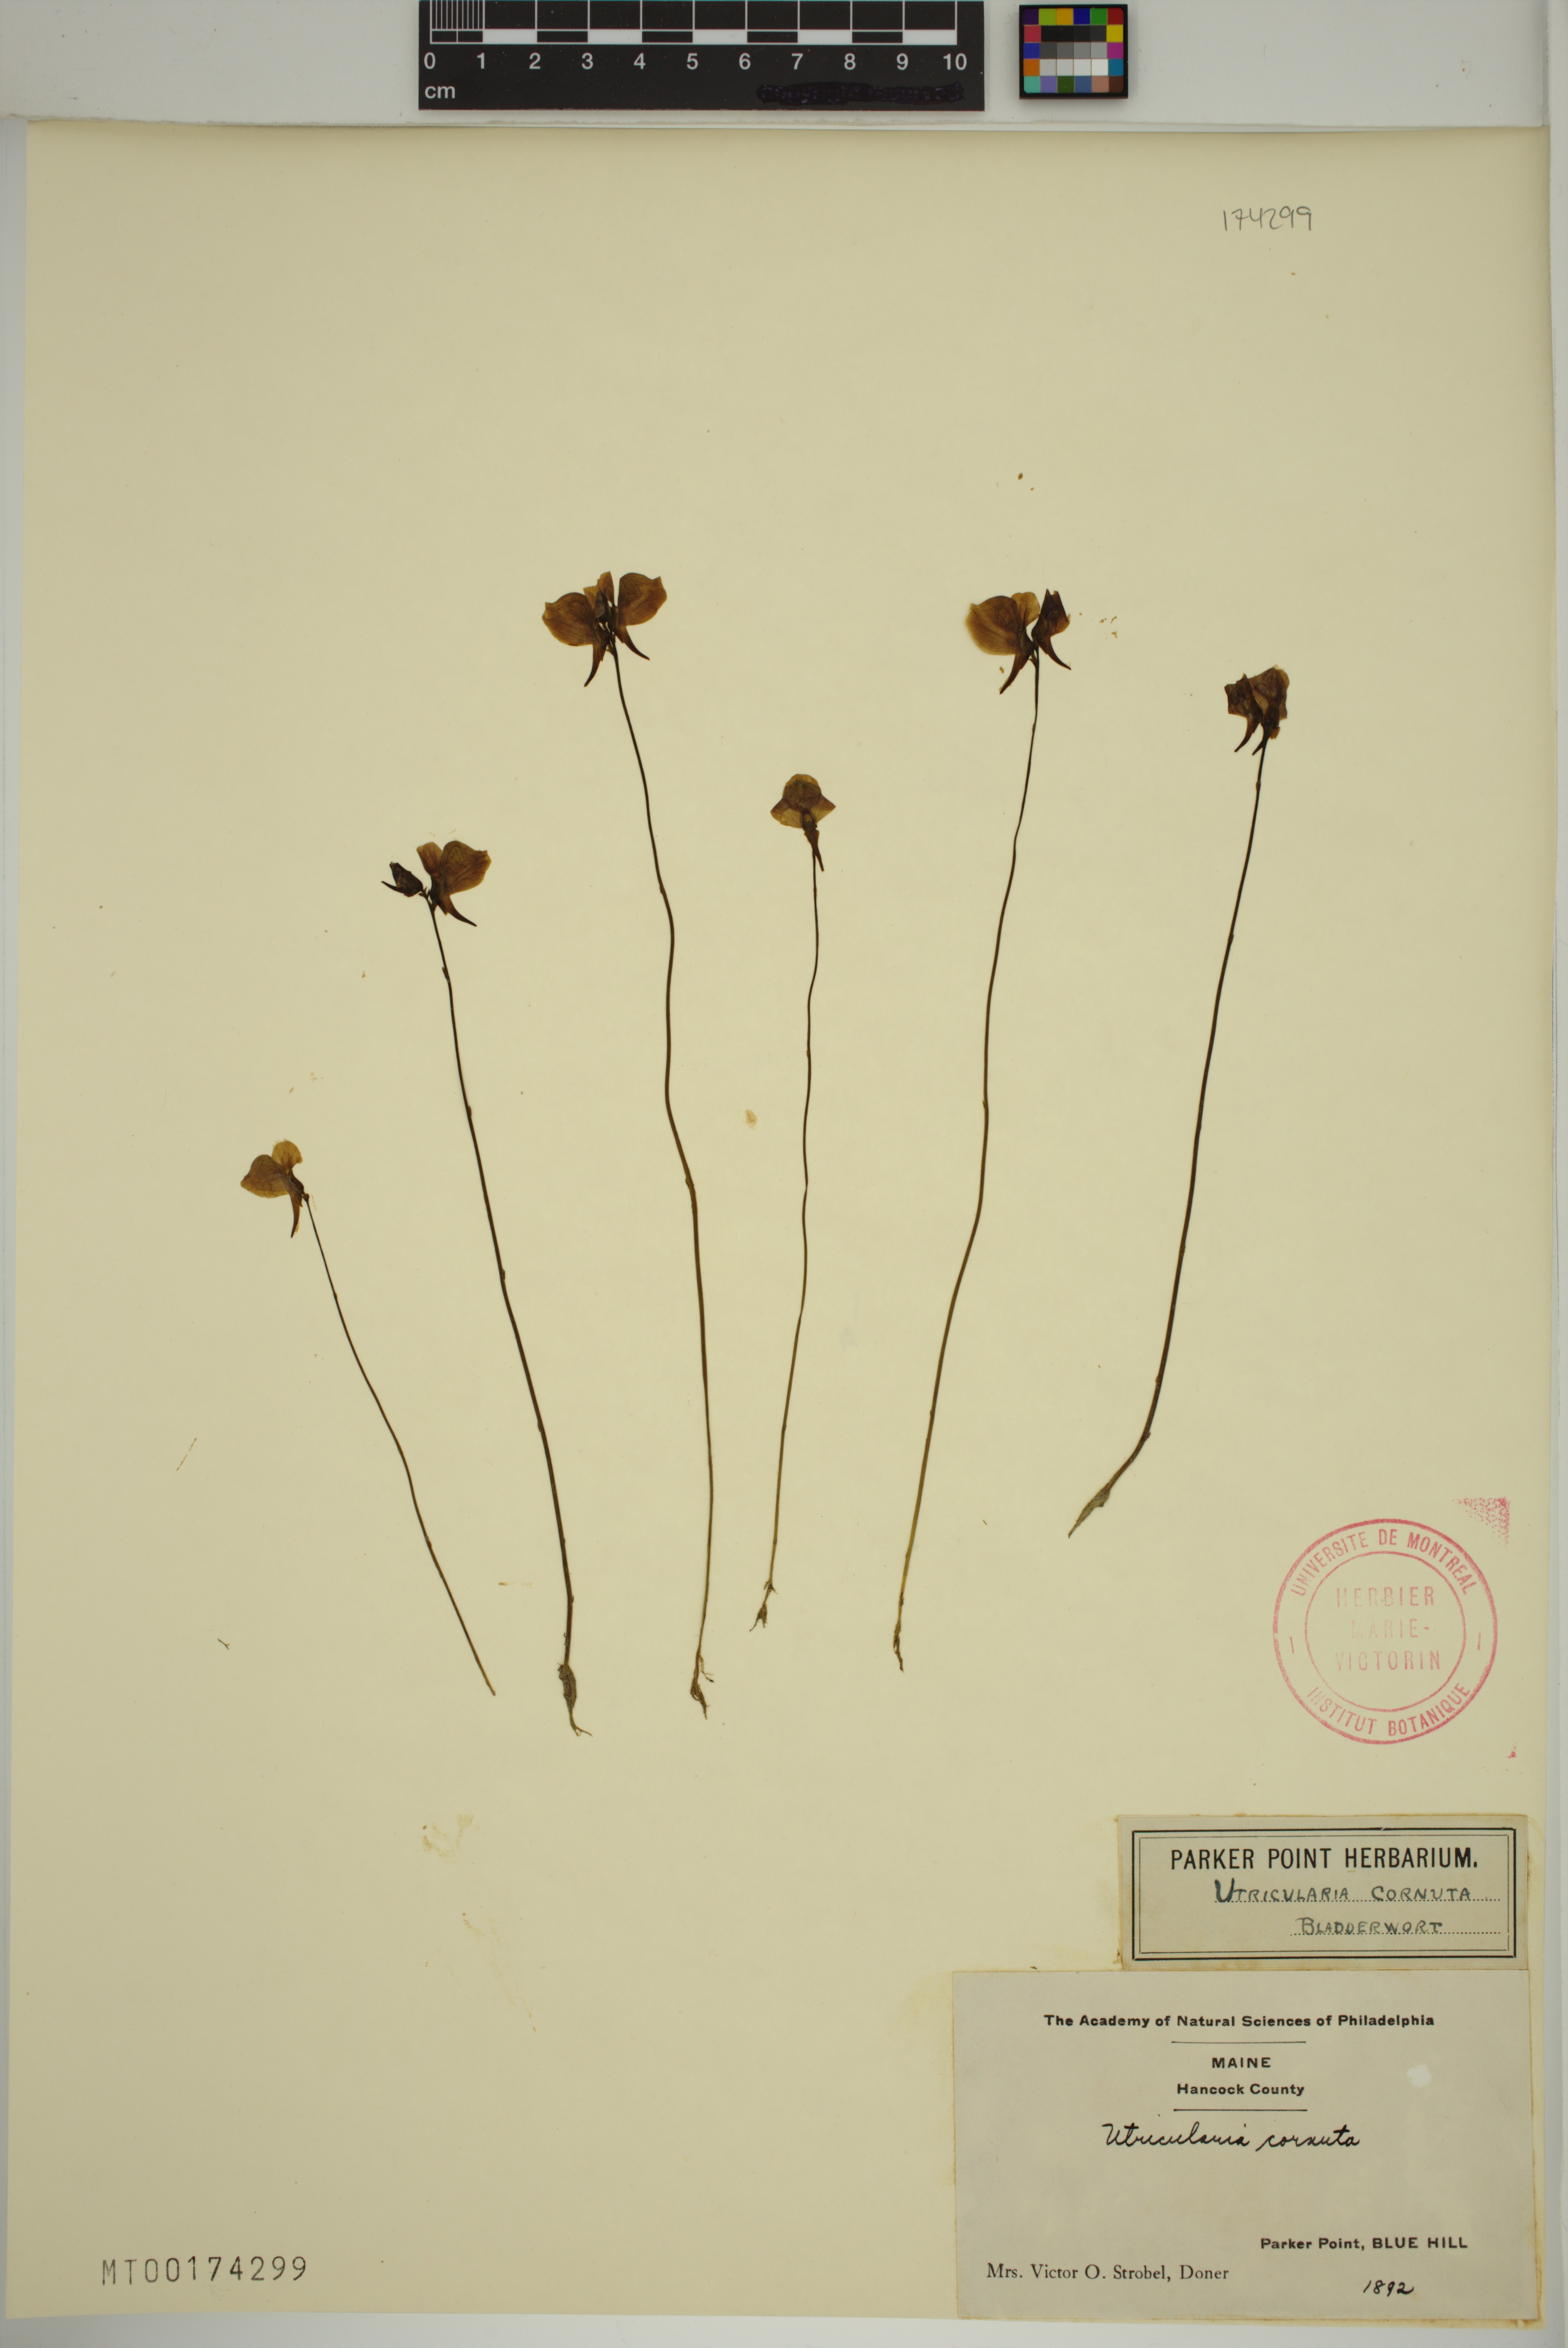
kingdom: Plantae
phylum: Tracheophyta
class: Magnoliopsida
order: Lamiales
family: Lentibulariaceae
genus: Utricularia
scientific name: Utricularia cornuta
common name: Horned bladderwort
